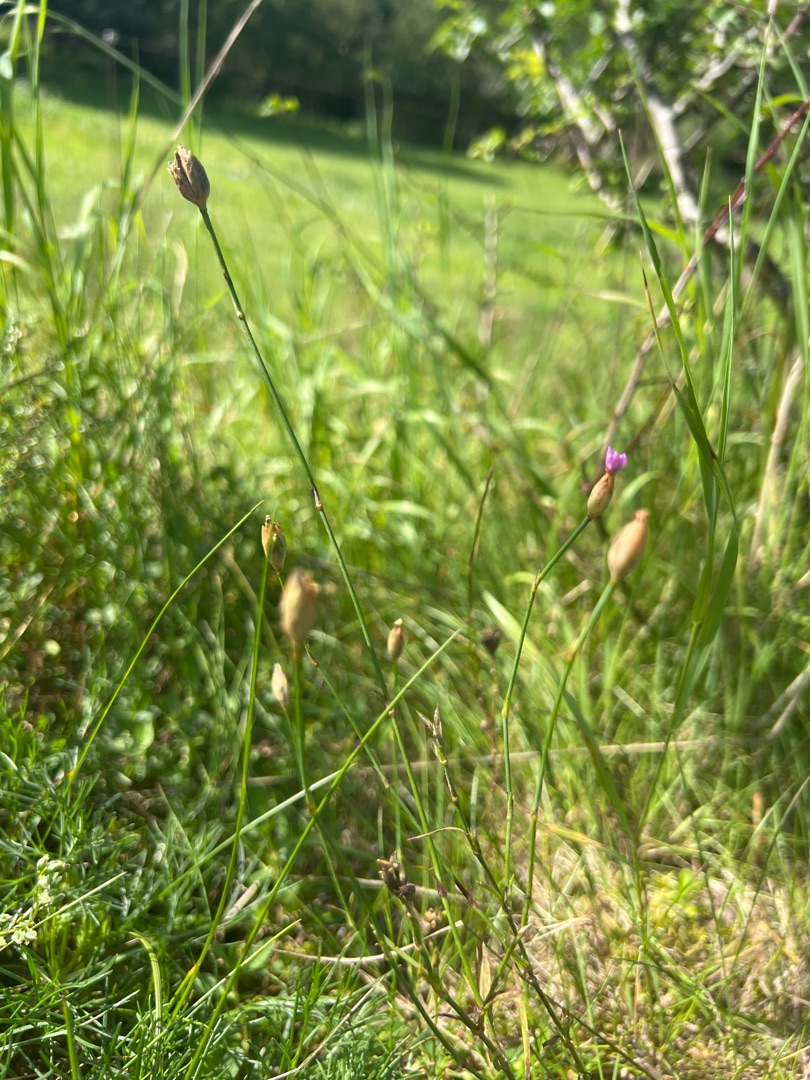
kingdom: Plantae
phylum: Tracheophyta
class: Magnoliopsida
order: Caryophyllales
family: Caryophyllaceae
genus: Petrorhagia
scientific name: Petrorhagia prolifera
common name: Knopnellike
